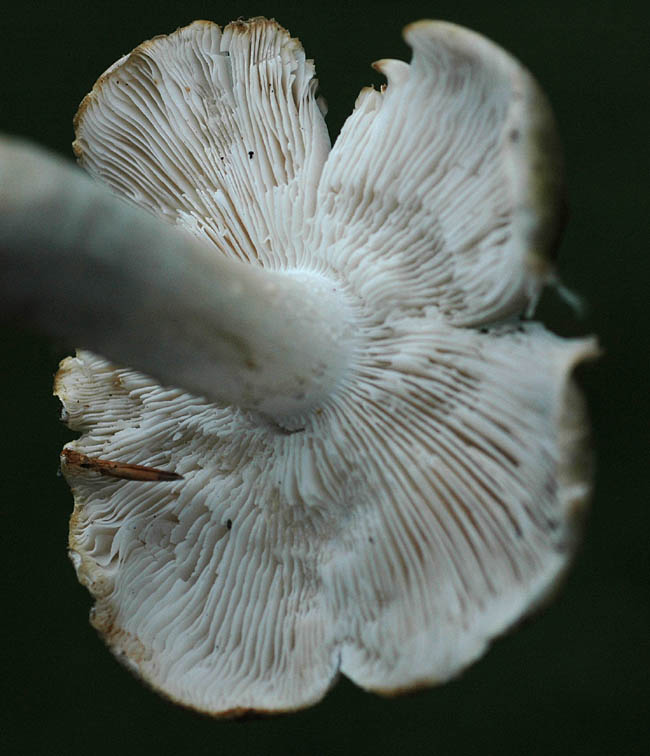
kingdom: Fungi
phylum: Basidiomycota
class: Agaricomycetes
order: Agaricales
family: Tricholomataceae
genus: Tricholoma
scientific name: Tricholoma umbonatum
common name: puklet ridderhat
